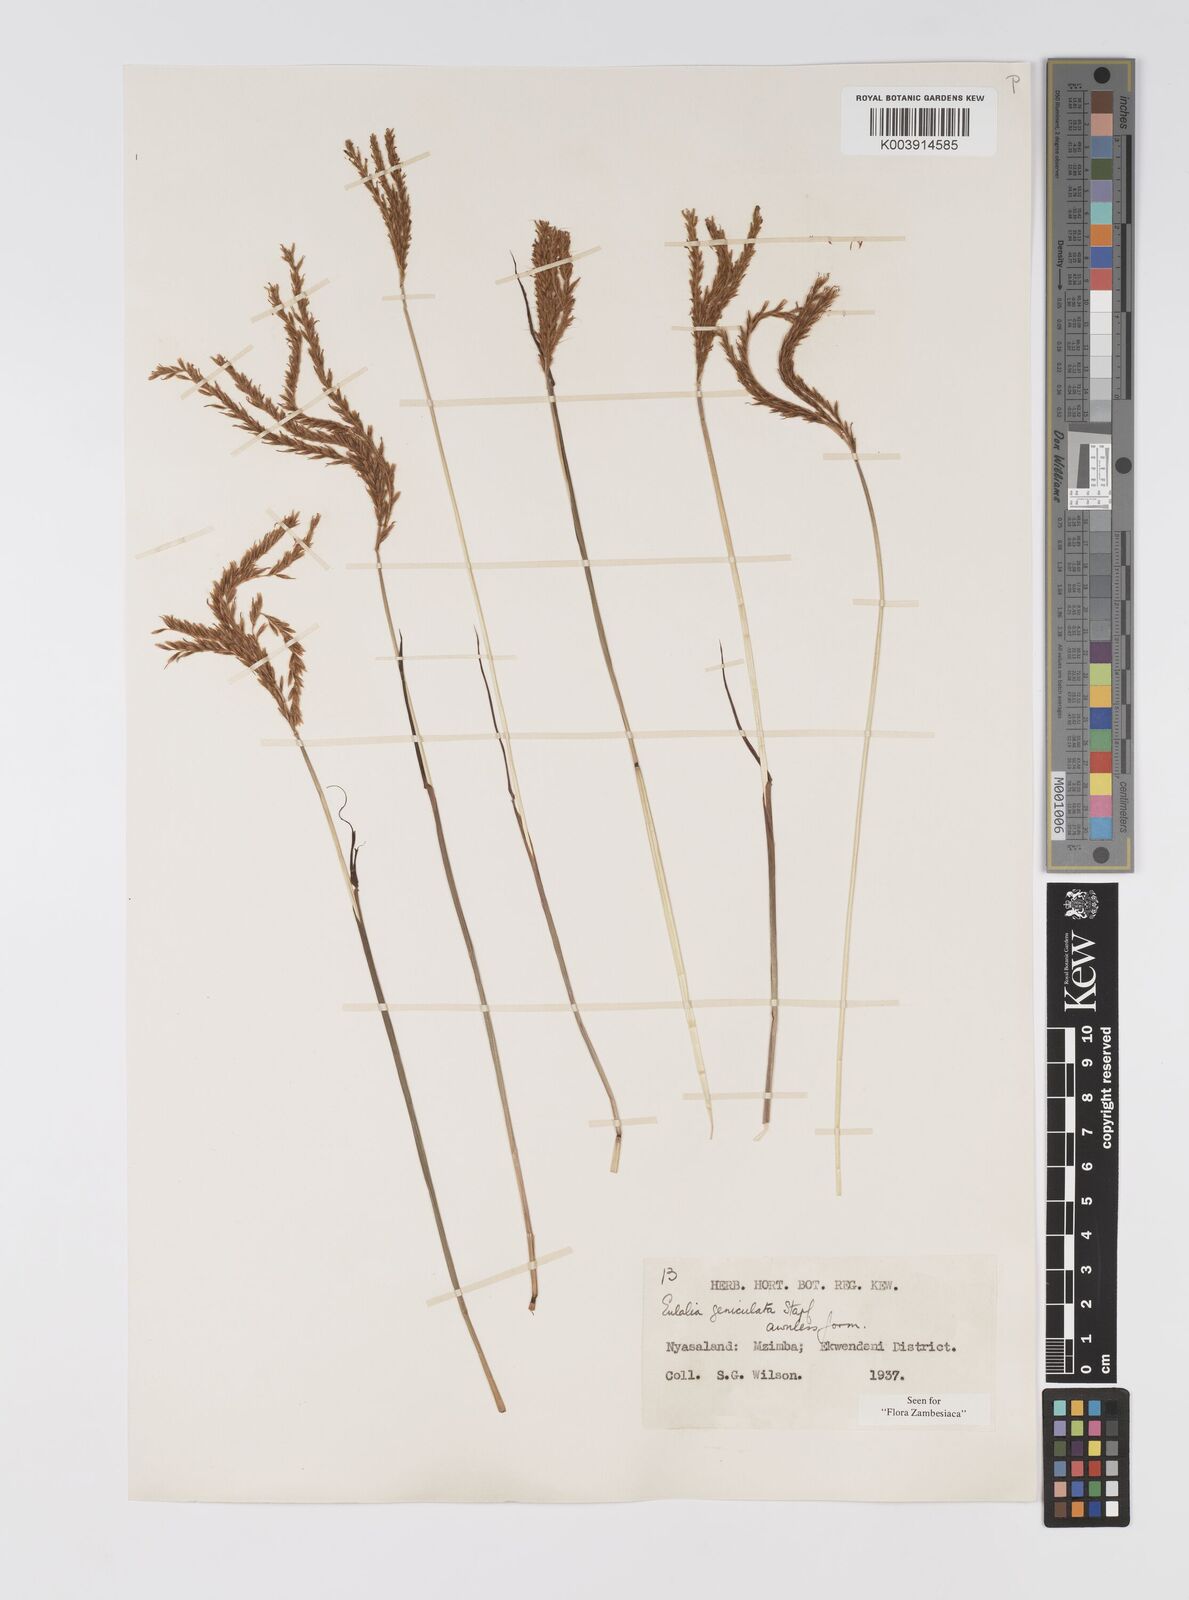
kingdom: Plantae
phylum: Tracheophyta
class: Liliopsida
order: Poales
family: Poaceae
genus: Eulalia
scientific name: Eulalia aurea
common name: Silky browntop
